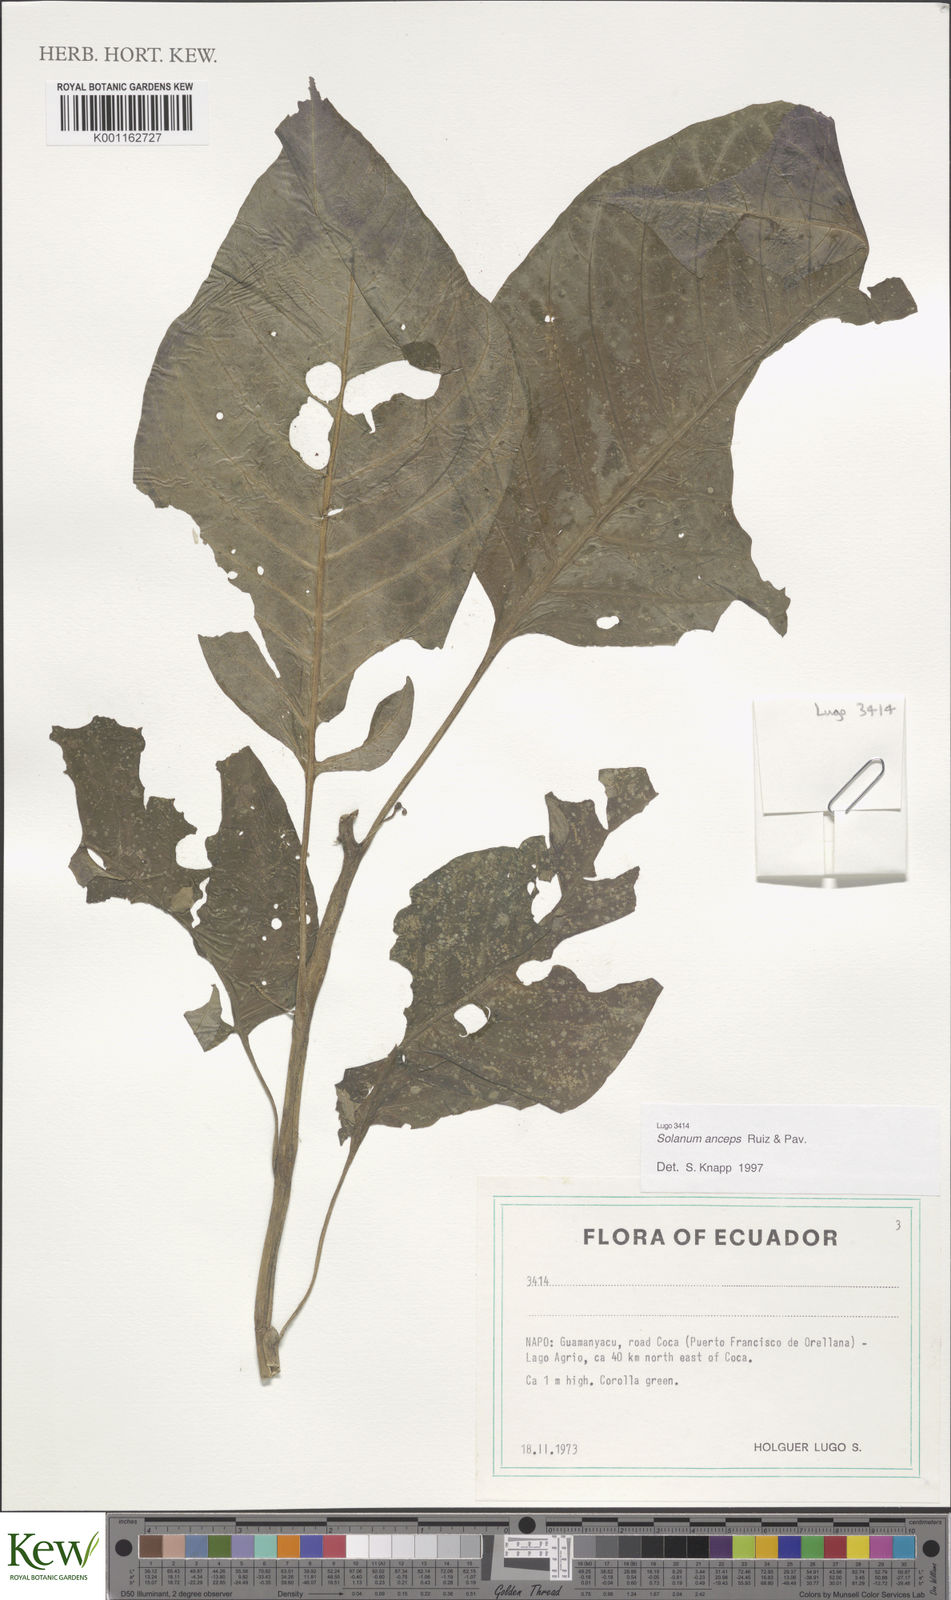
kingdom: Plantae
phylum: Tracheophyta
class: Magnoliopsida
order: Solanales
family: Solanaceae
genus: Solanum
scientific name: Solanum anceps
